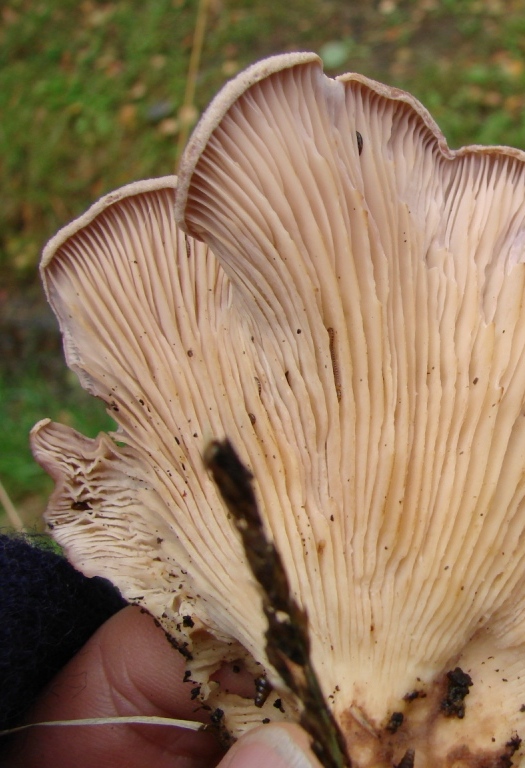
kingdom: Fungi
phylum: Basidiomycota
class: Agaricomycetes
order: Polyporales
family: Panaceae
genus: Panus
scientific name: Panus conchatus
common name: filtstokket læderhat
